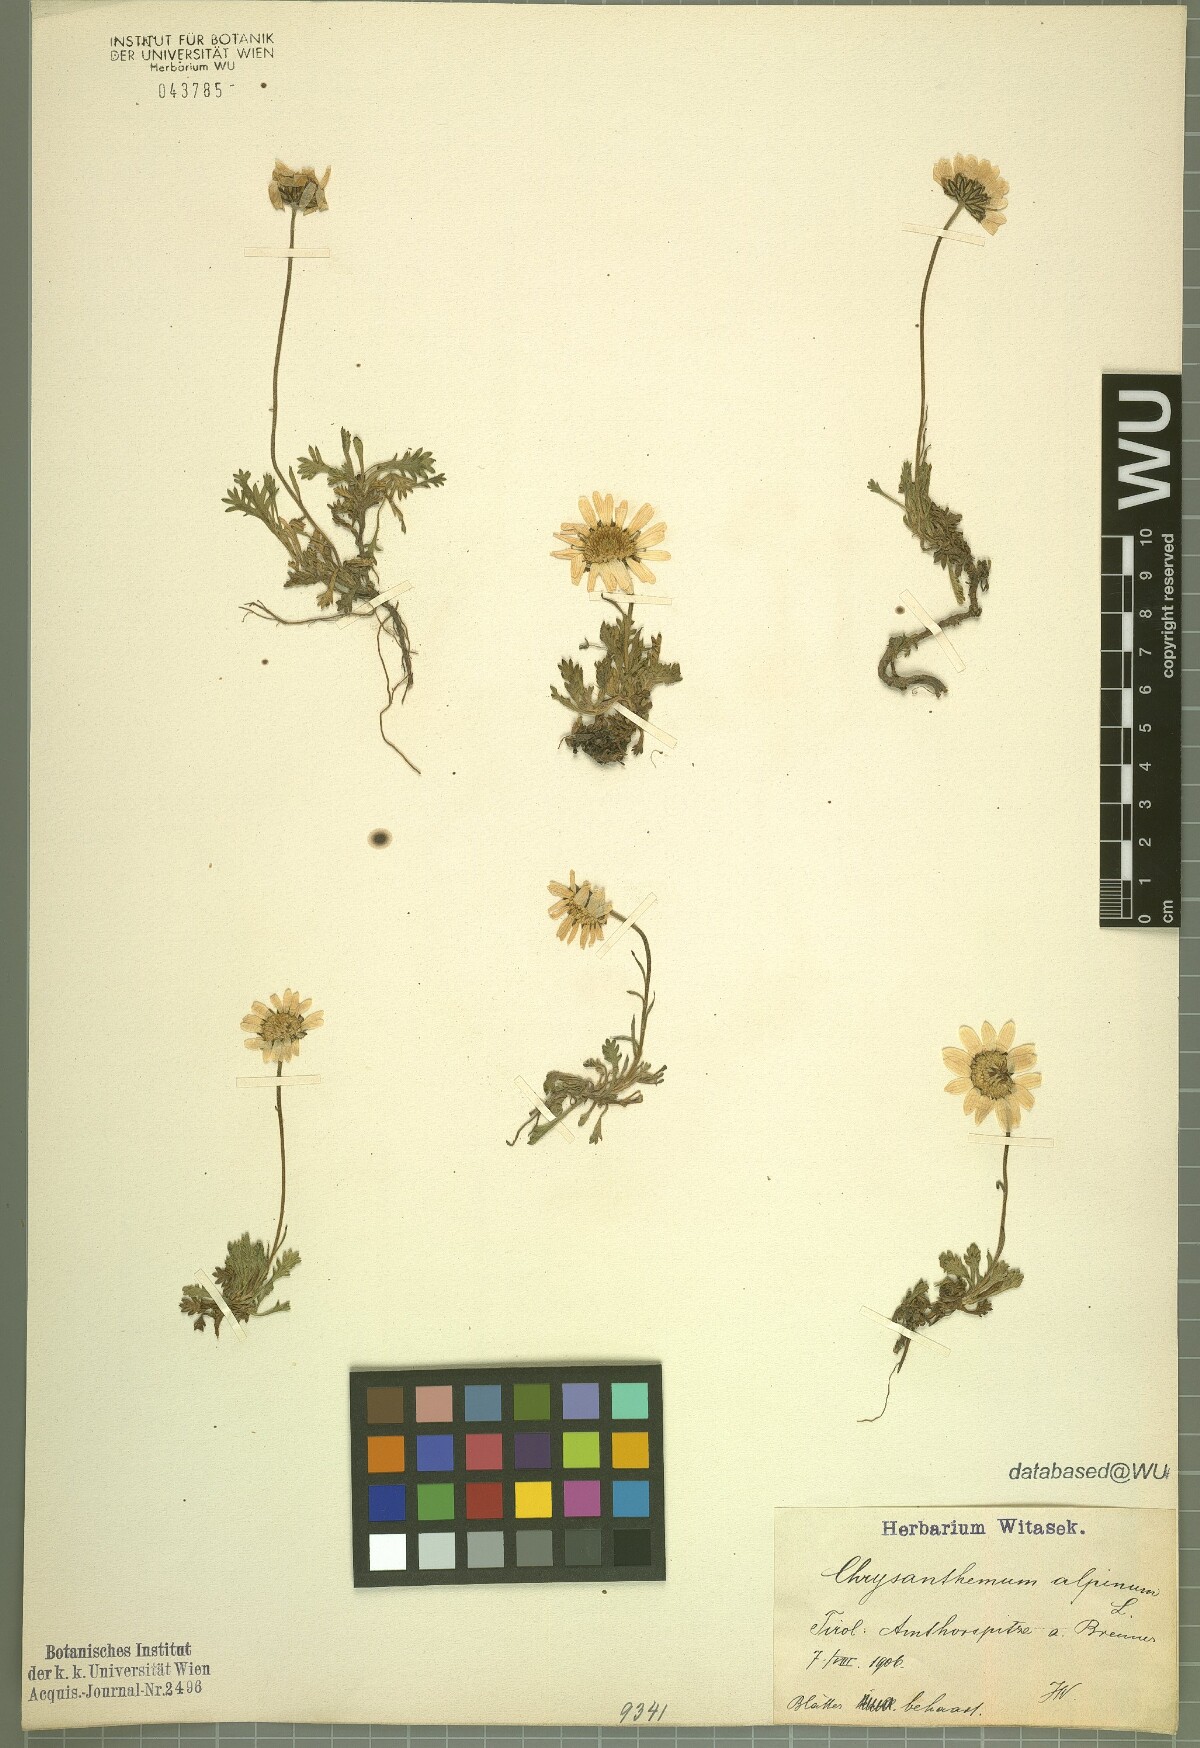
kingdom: Plantae
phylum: Tracheophyta
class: Magnoliopsida
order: Asterales
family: Asteraceae
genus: Leucanthemopsis
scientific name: Leucanthemopsis alpina
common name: Alpine moon daisy
